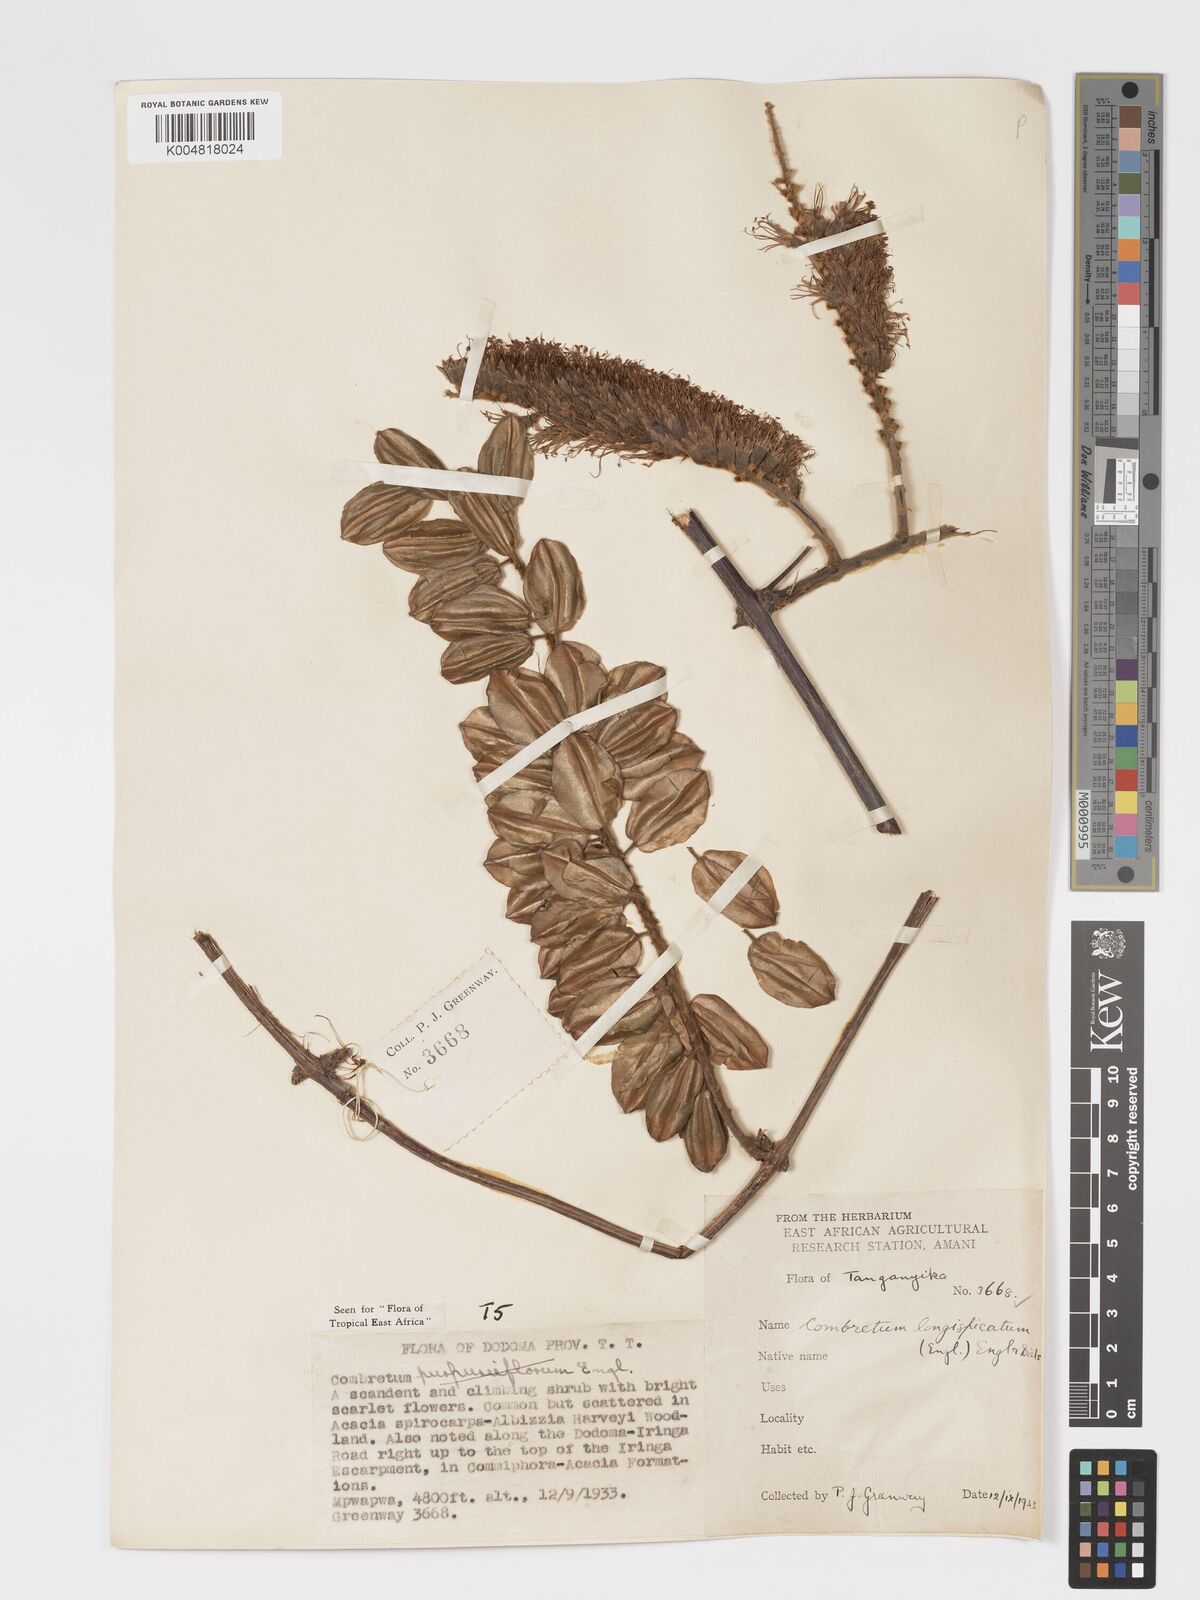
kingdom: Plantae
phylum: Tracheophyta
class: Magnoliopsida
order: Myrtales
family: Combretaceae
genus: Combretum
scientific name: Combretum longispicatum
